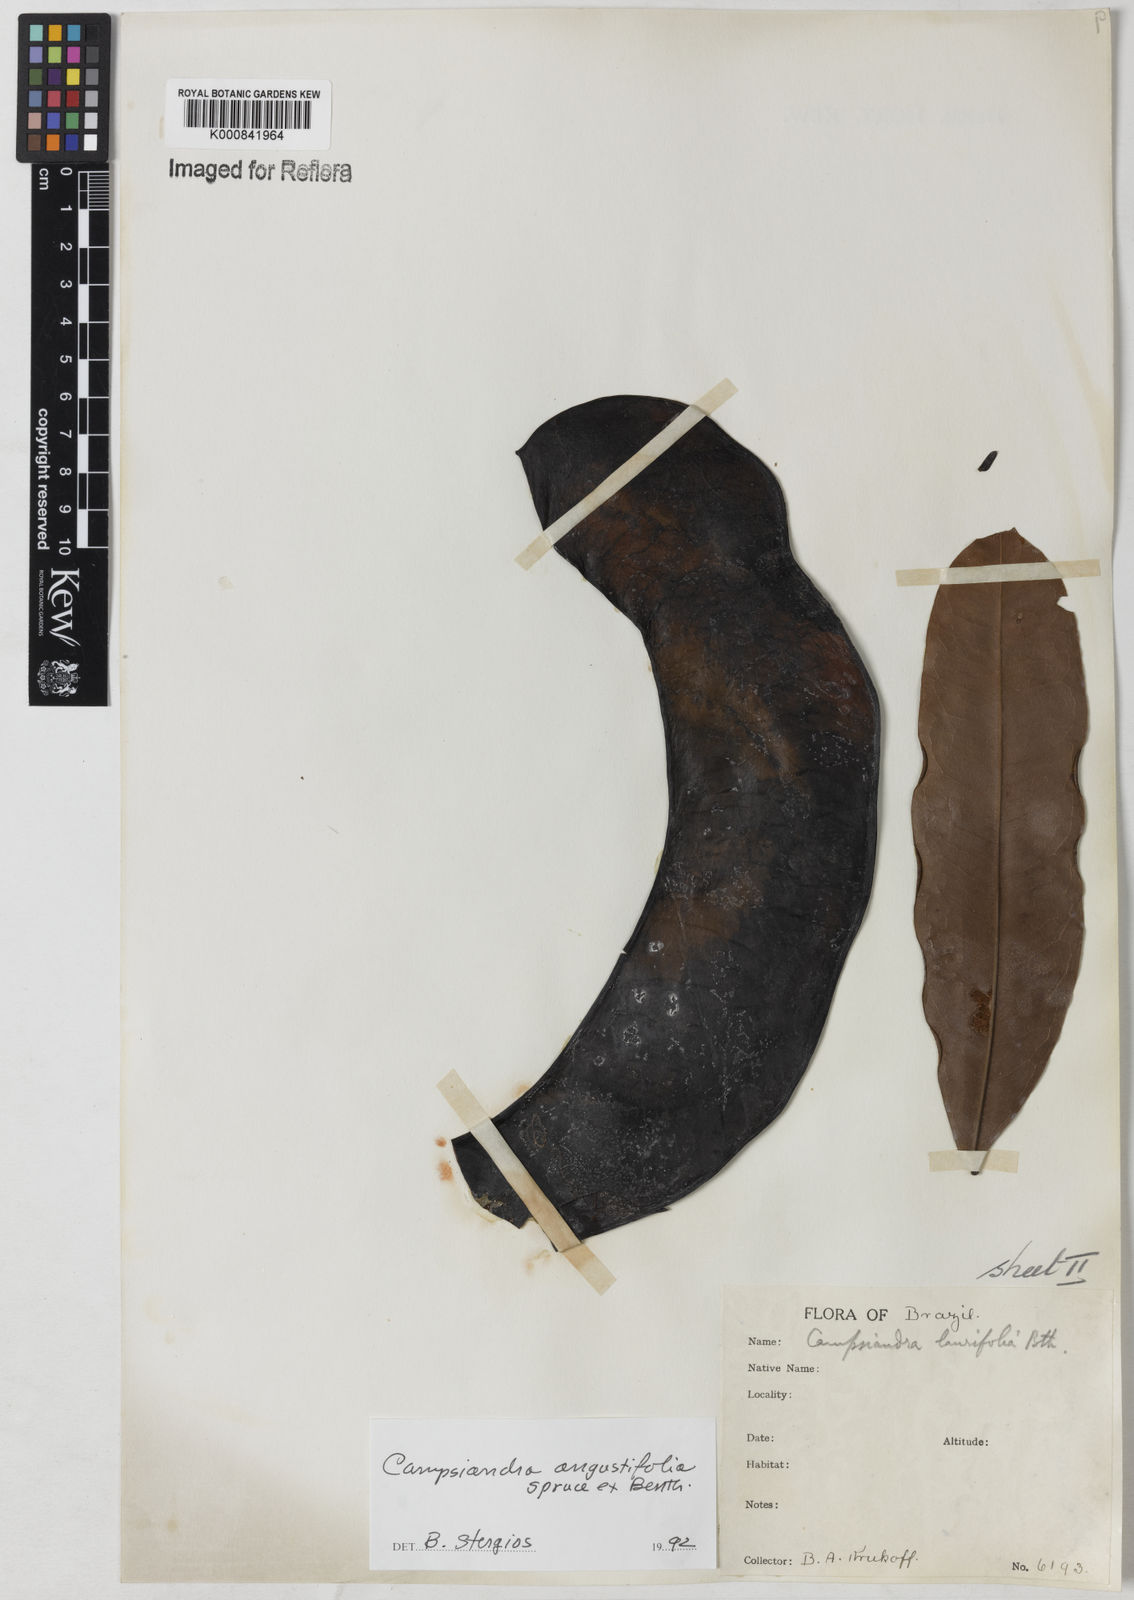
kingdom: Plantae
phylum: Tracheophyta
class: Magnoliopsida
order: Fabales
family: Fabaceae
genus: Campsiandra
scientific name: Campsiandra
